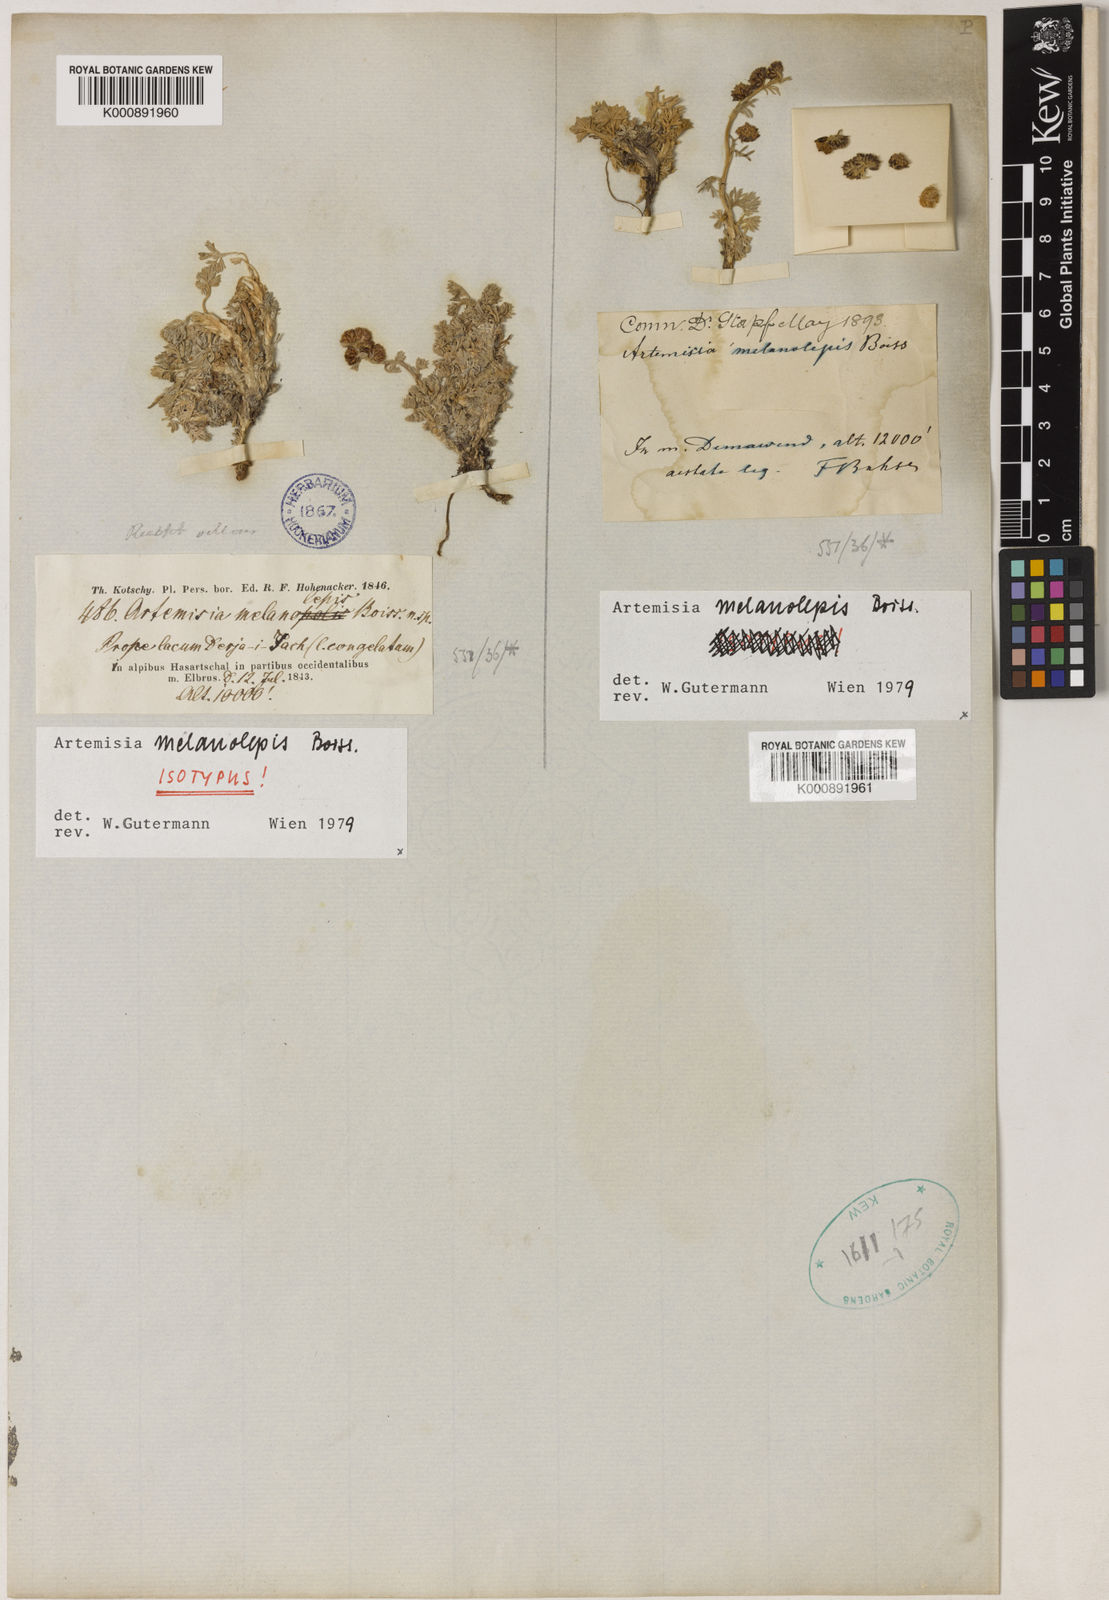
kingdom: Plantae
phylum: Tracheophyta
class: Magnoliopsida
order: Asterales
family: Asteraceae
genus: Artemisia
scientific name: Artemisia minor
